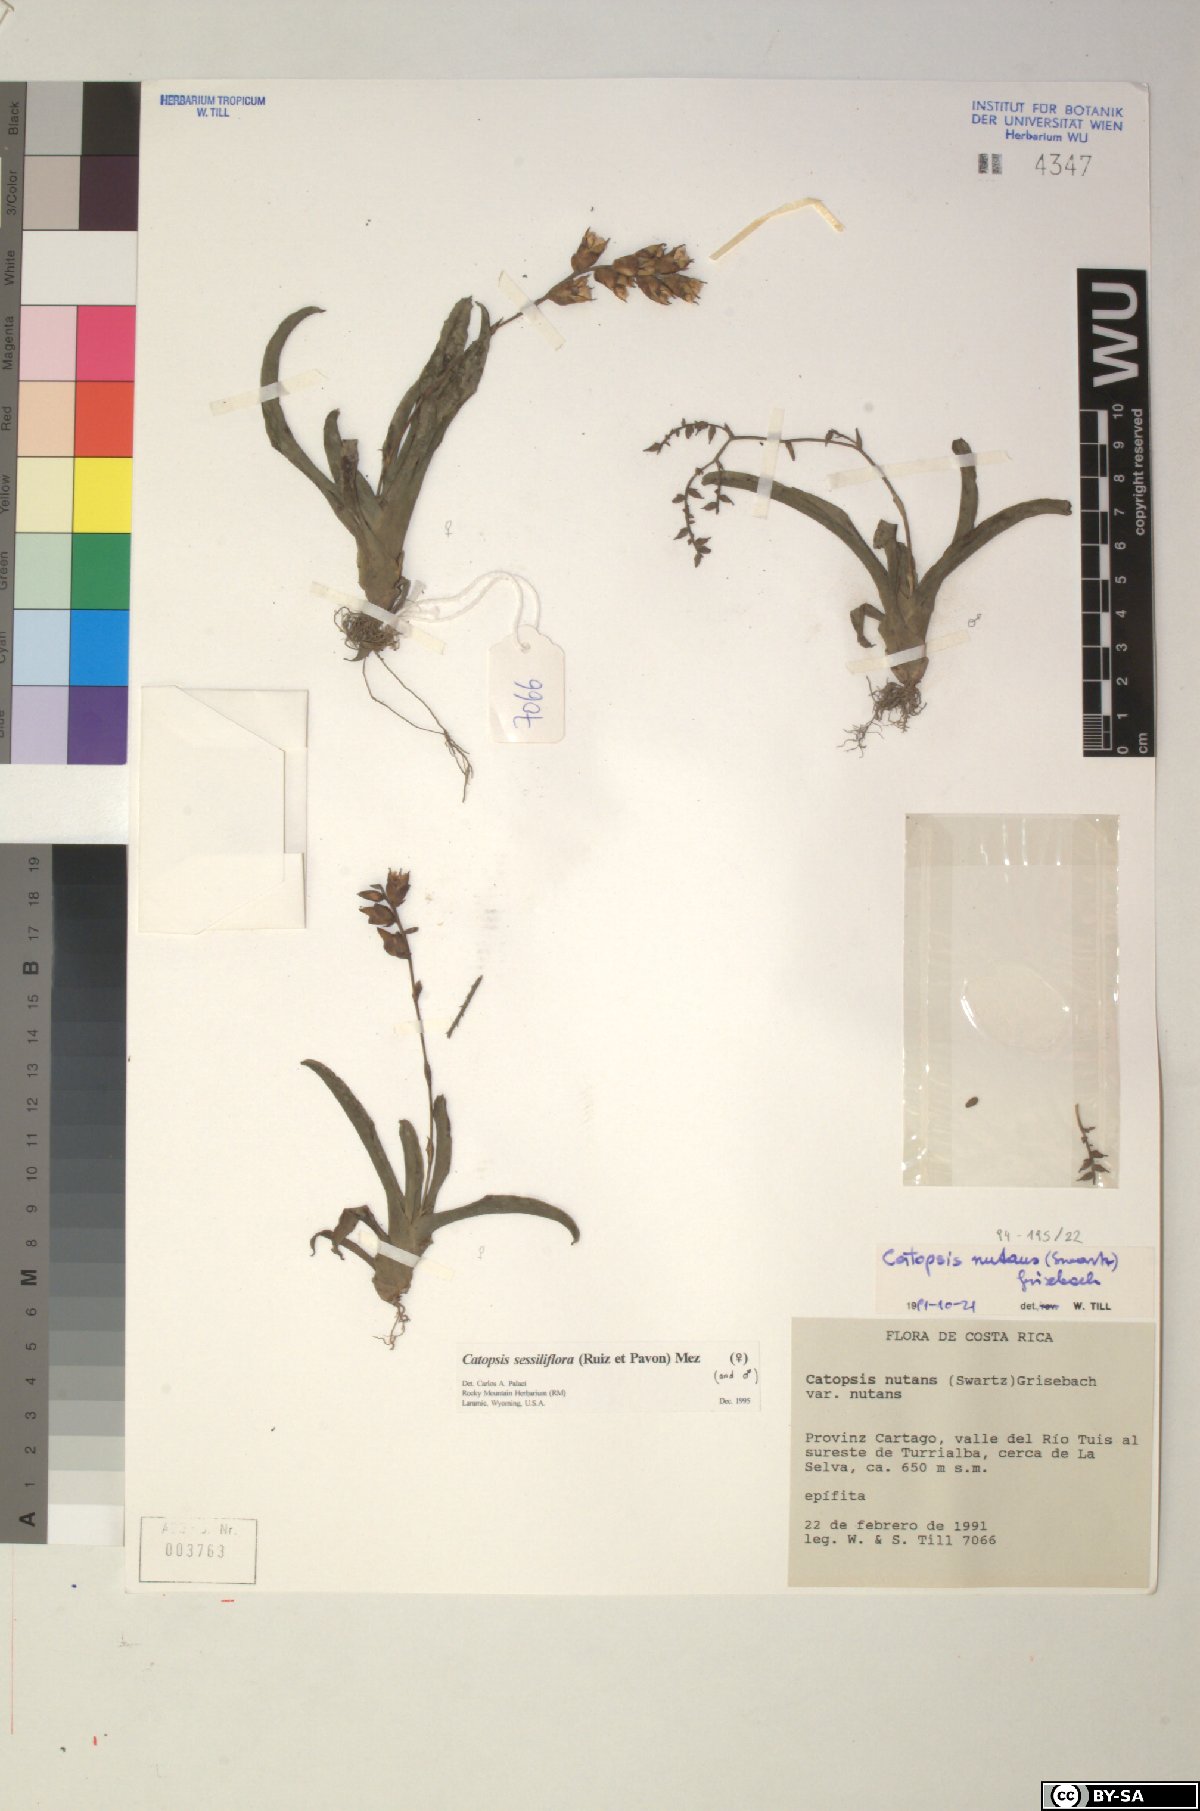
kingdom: Plantae
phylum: Tracheophyta
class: Liliopsida
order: Poales
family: Bromeliaceae
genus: Catopsis
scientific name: Catopsis sessiliflora
